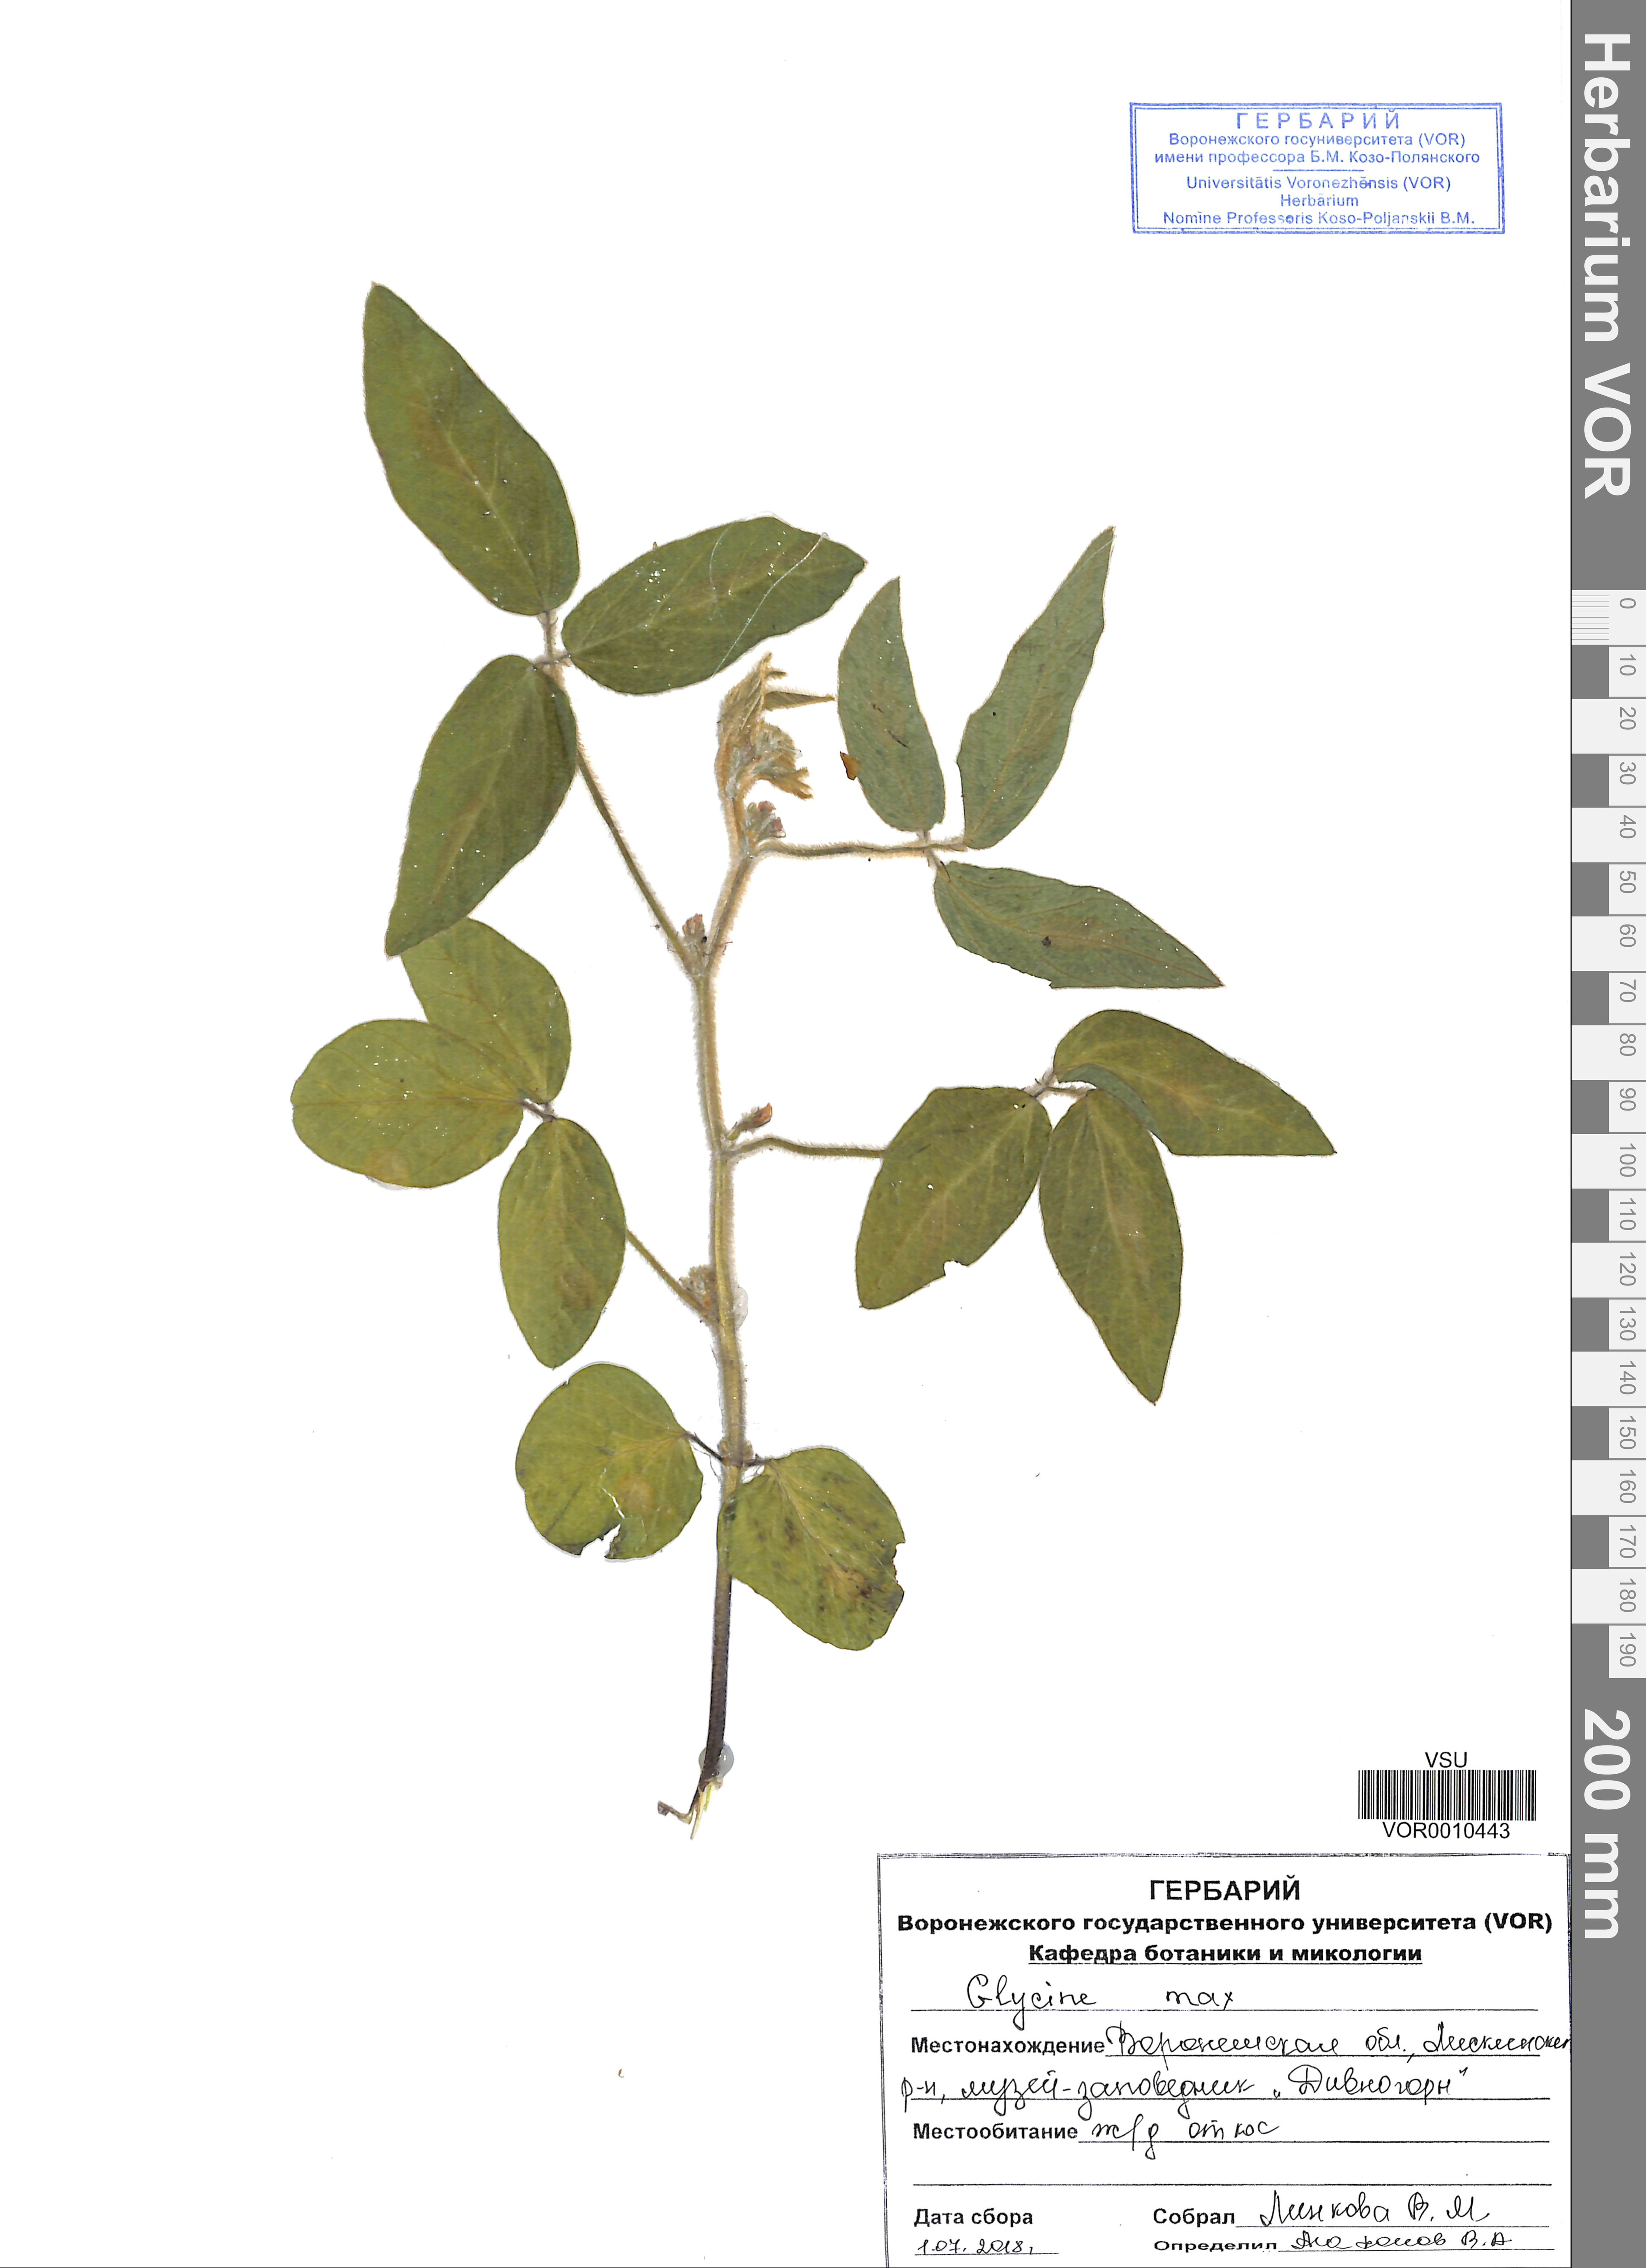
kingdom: Plantae
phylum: Tracheophyta
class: Magnoliopsida
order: Fabales
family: Fabaceae
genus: Glycine
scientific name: Glycine max
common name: Soya-bean
